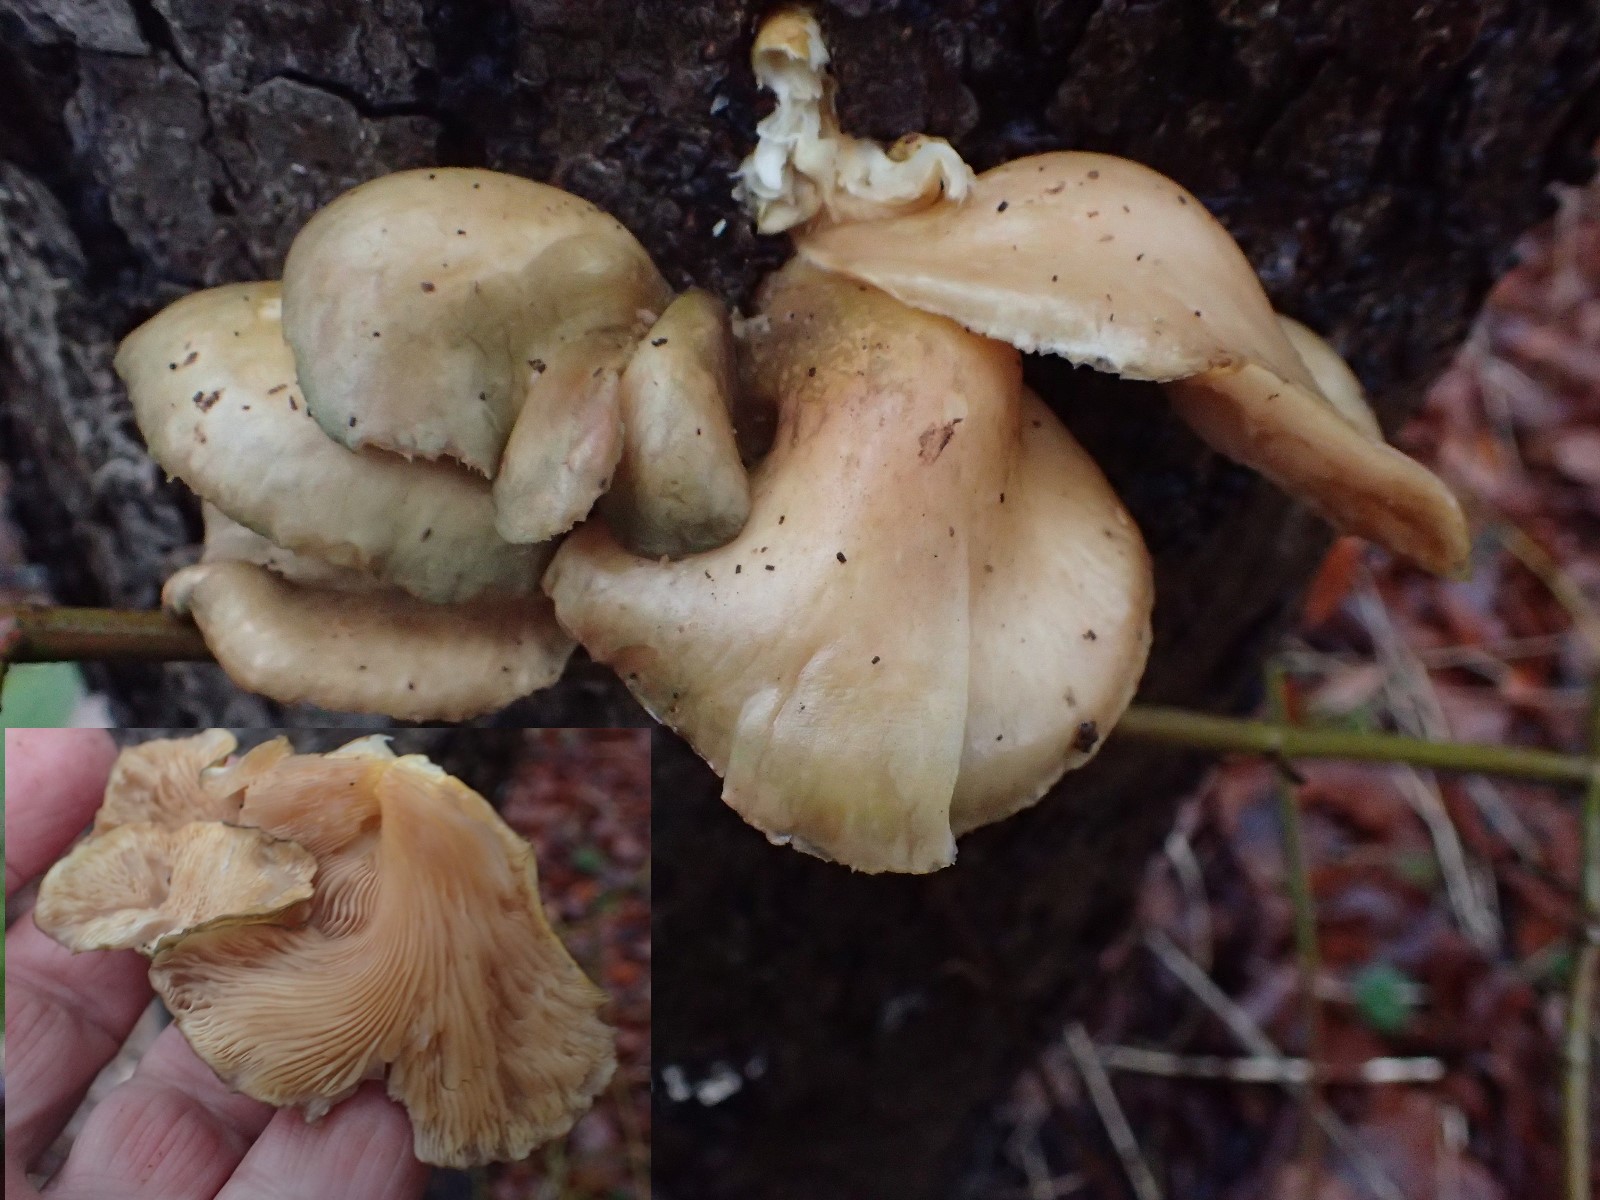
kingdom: Fungi
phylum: Basidiomycota
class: Agaricomycetes
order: Agaricales
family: Sarcomyxaceae
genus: Sarcomyxa
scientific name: Sarcomyxa serotina
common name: gummihat
